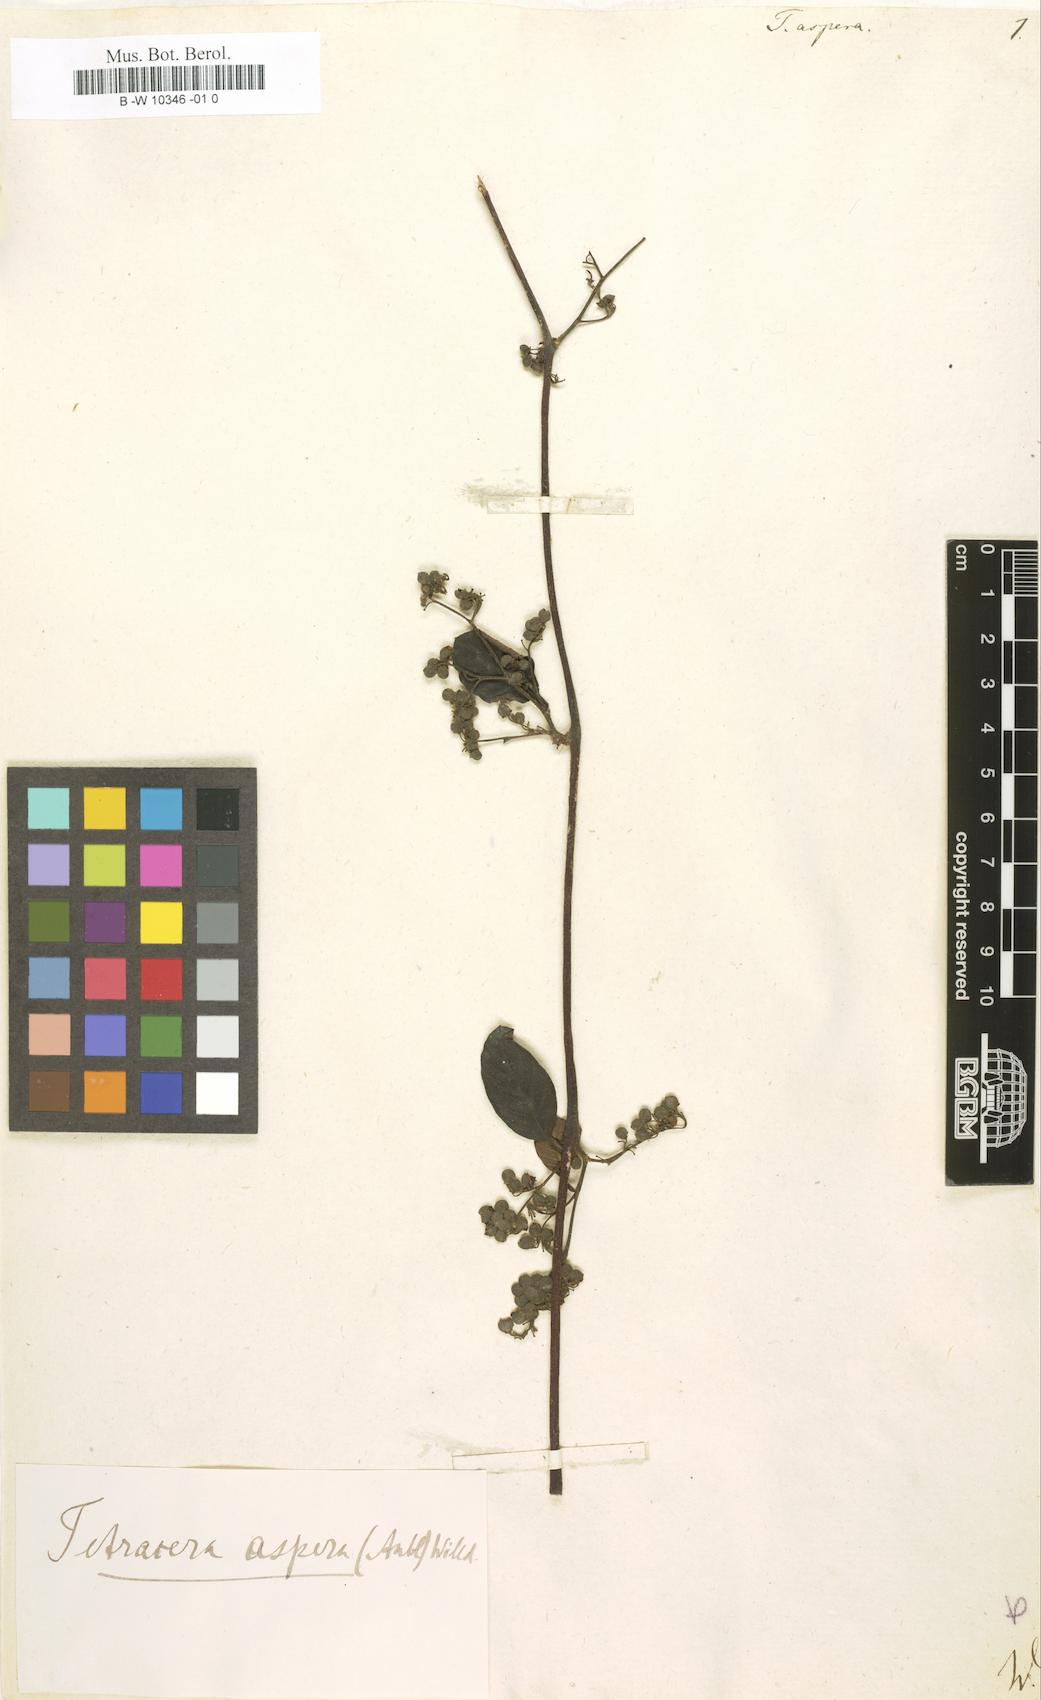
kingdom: Plantae
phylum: Tracheophyta
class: Magnoliopsida
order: Dilleniales
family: Dilleniaceae
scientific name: Dilleniaceae
